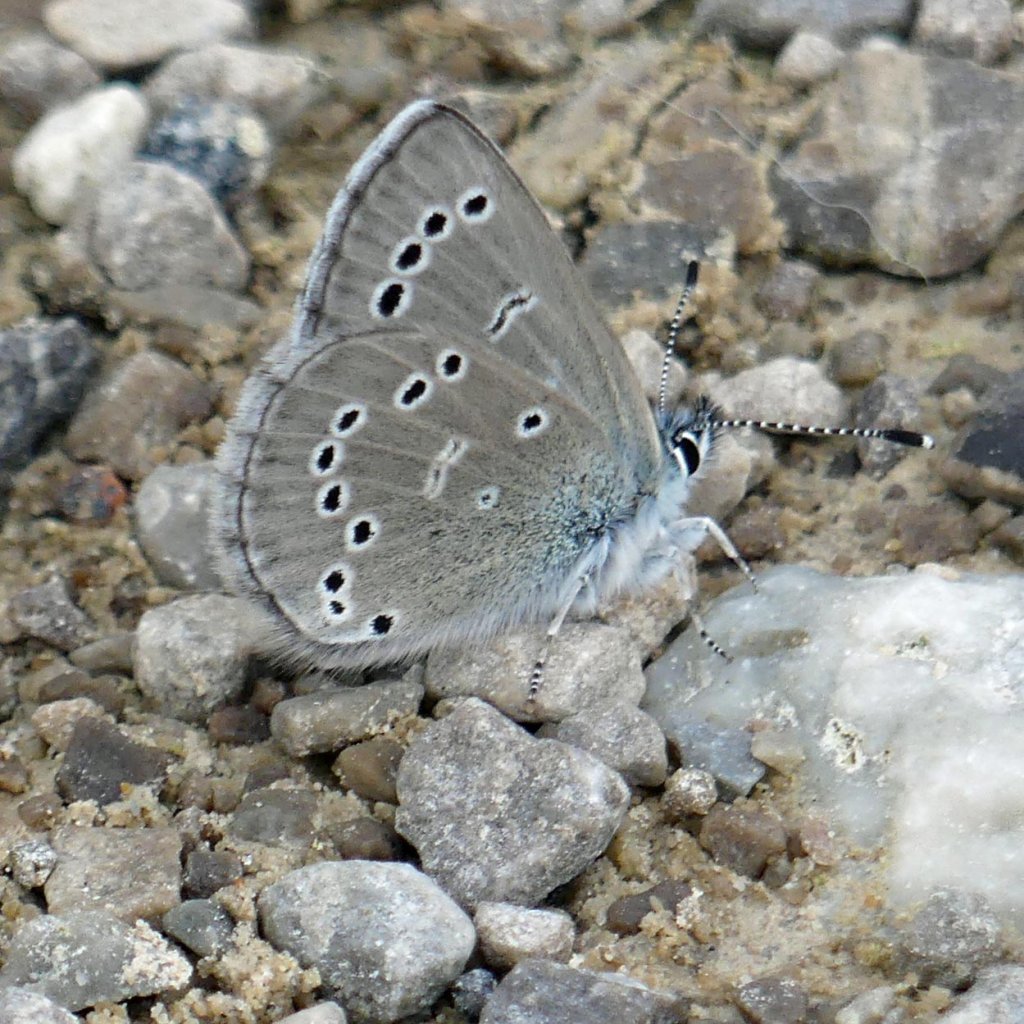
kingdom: Animalia
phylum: Arthropoda
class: Insecta
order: Lepidoptera
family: Lycaenidae
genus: Glaucopsyche
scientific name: Glaucopsyche lygdamus
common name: Silvery Blue
